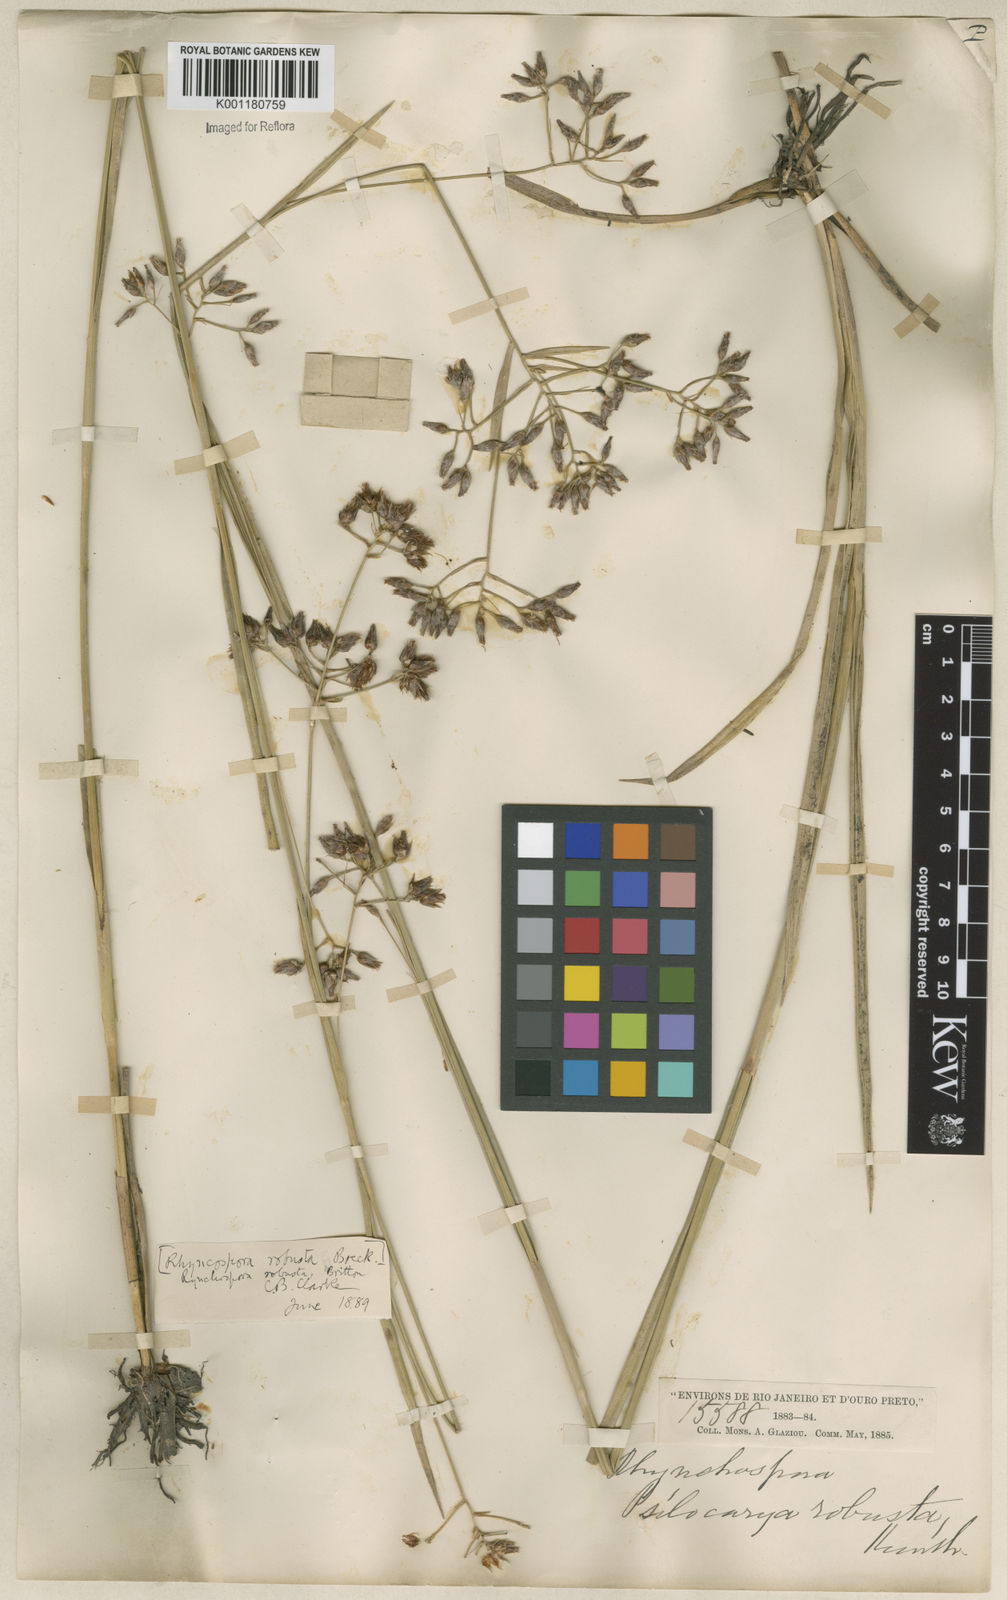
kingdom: Plantae
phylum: Tracheophyta
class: Liliopsida
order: Poales
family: Cyperaceae
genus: Rhynchospora
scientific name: Rhynchospora robusta
